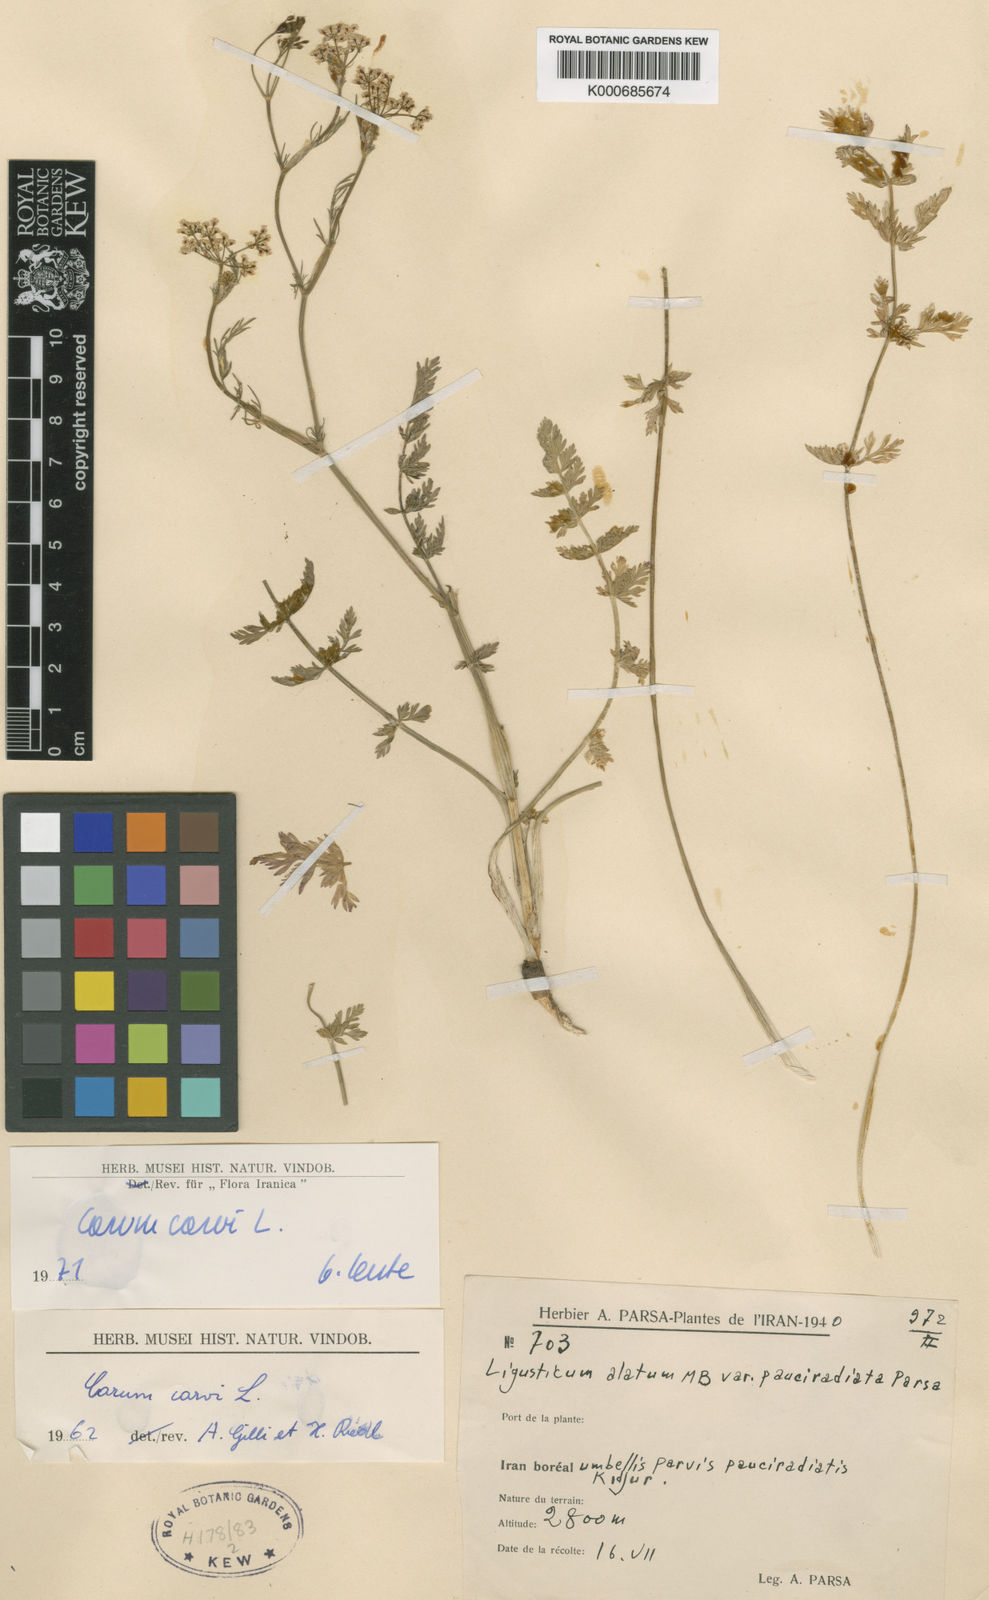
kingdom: Plantae
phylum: Tracheophyta
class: Magnoliopsida
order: Apiales
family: Apiaceae
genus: Carum
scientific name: Carum carvi
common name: Caraway
